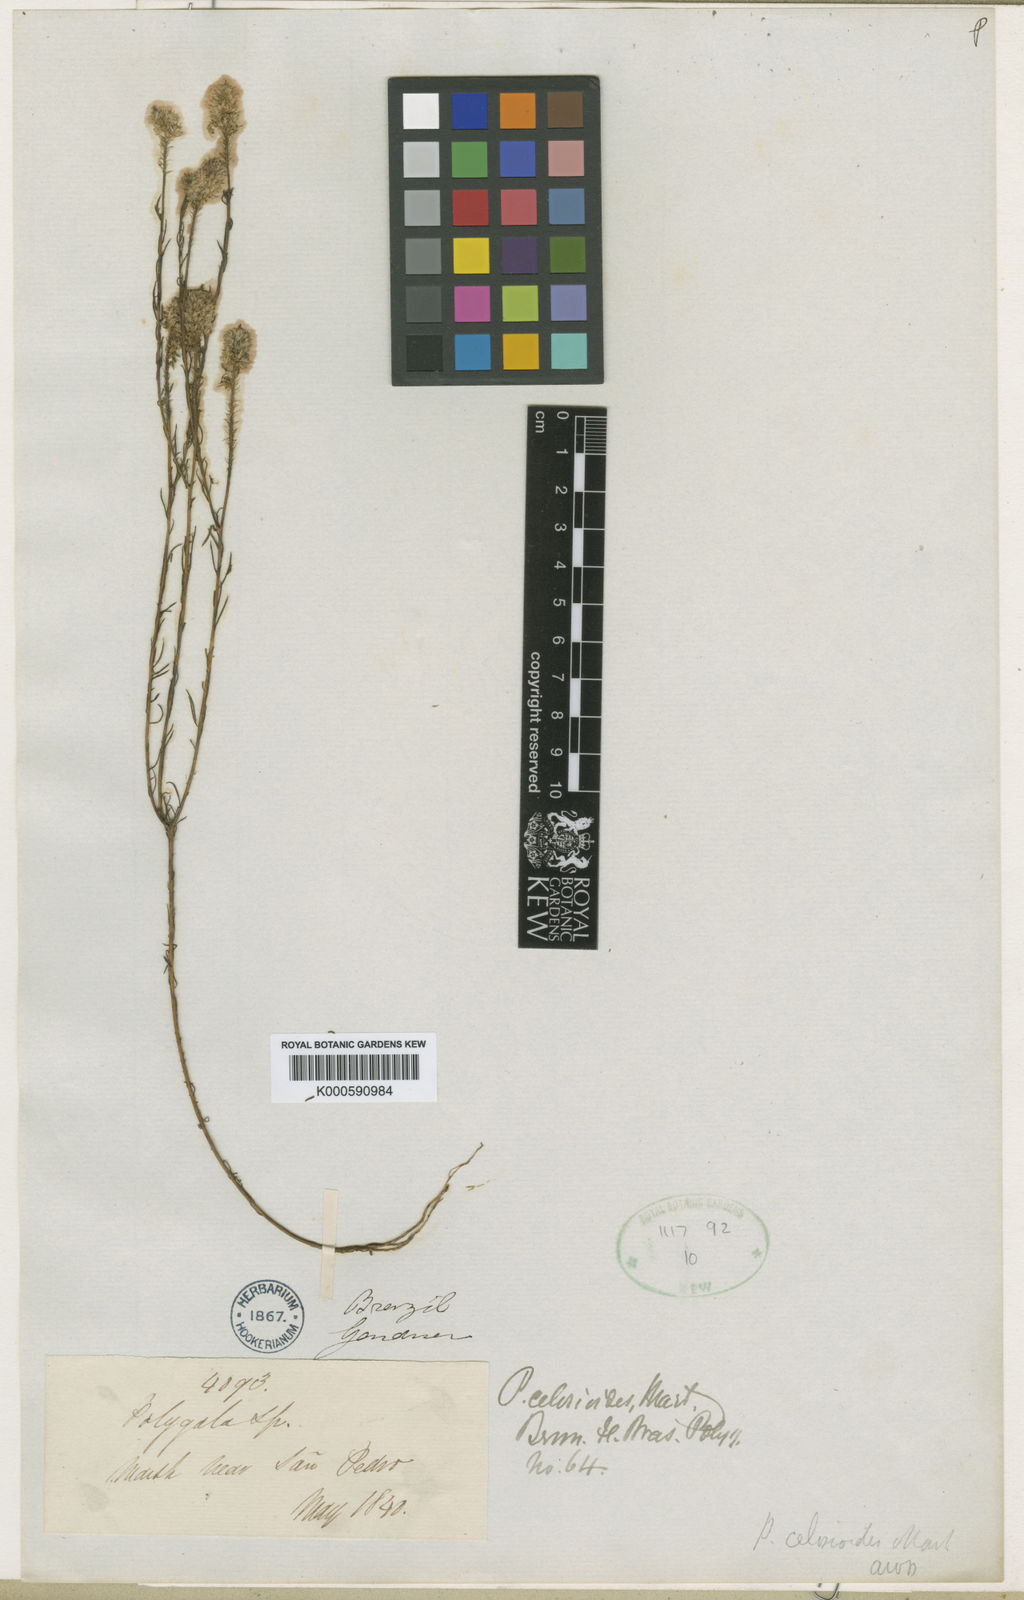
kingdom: Plantae
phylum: Tracheophyta
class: Magnoliopsida
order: Fabales
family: Polygalaceae
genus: Polygala
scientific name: Polygala celosioides
